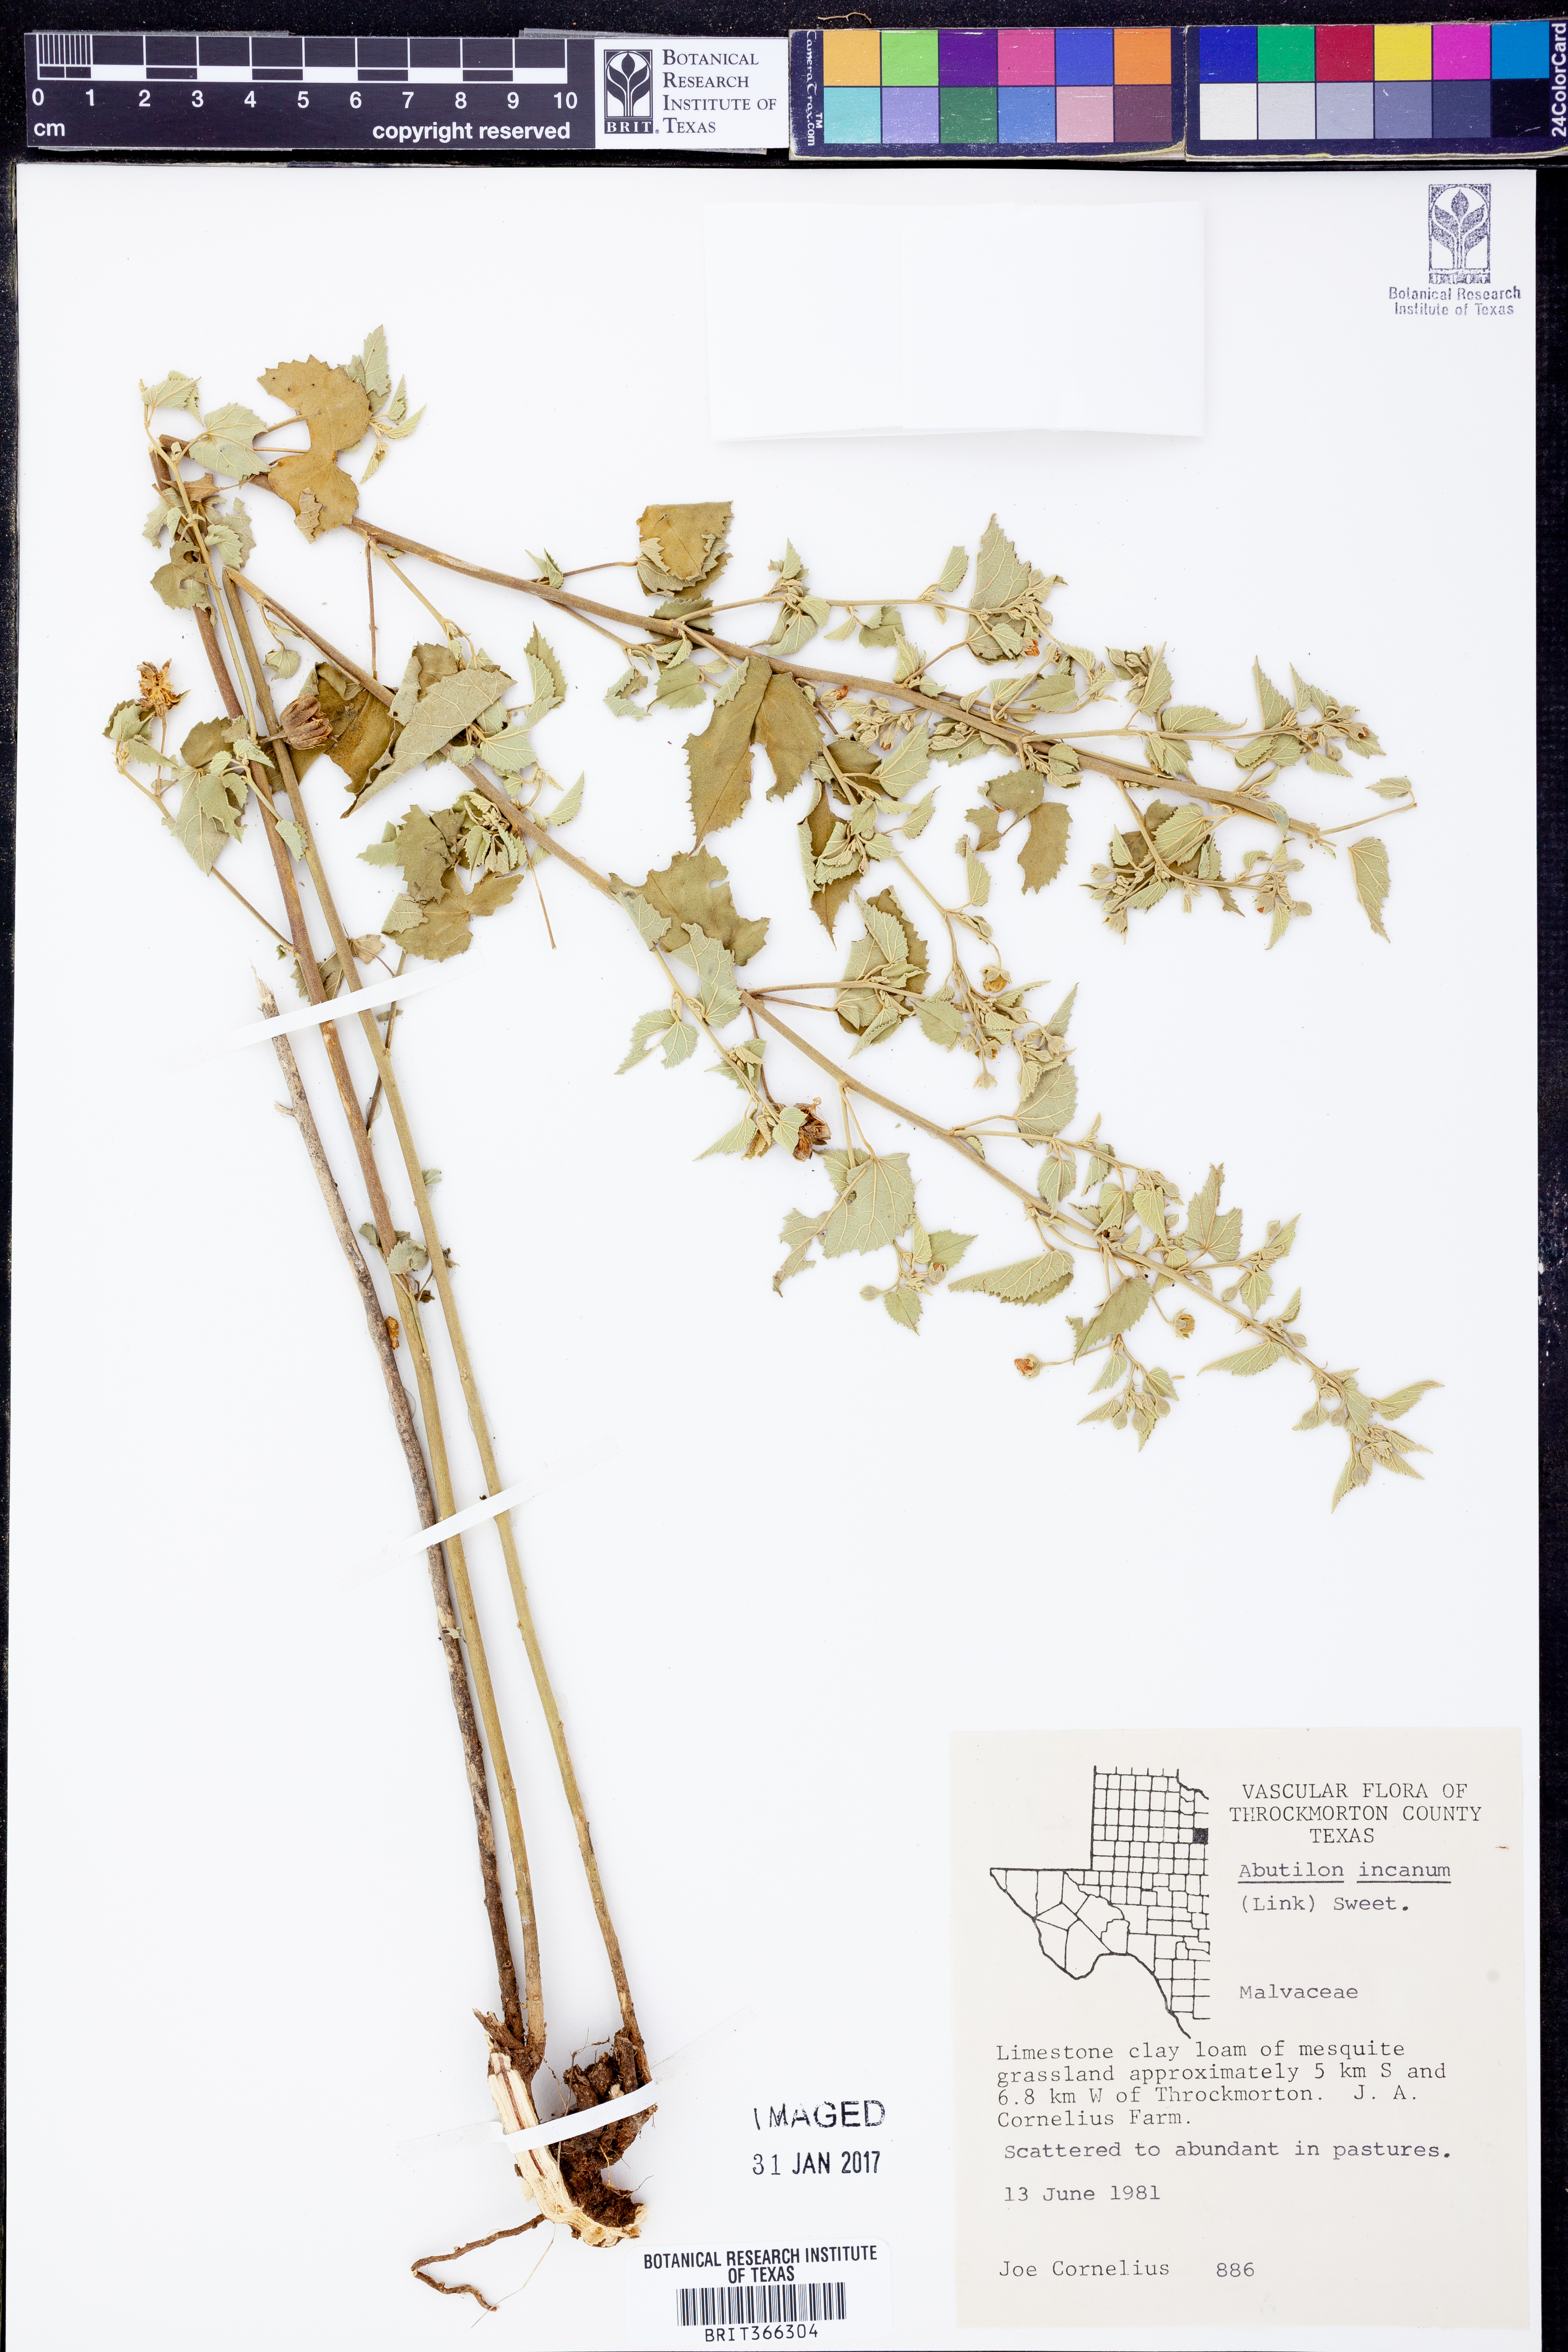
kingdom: Plantae
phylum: Tracheophyta
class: Magnoliopsida
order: Malvales
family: Malvaceae
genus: Abutilon
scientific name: Abutilon incanum
